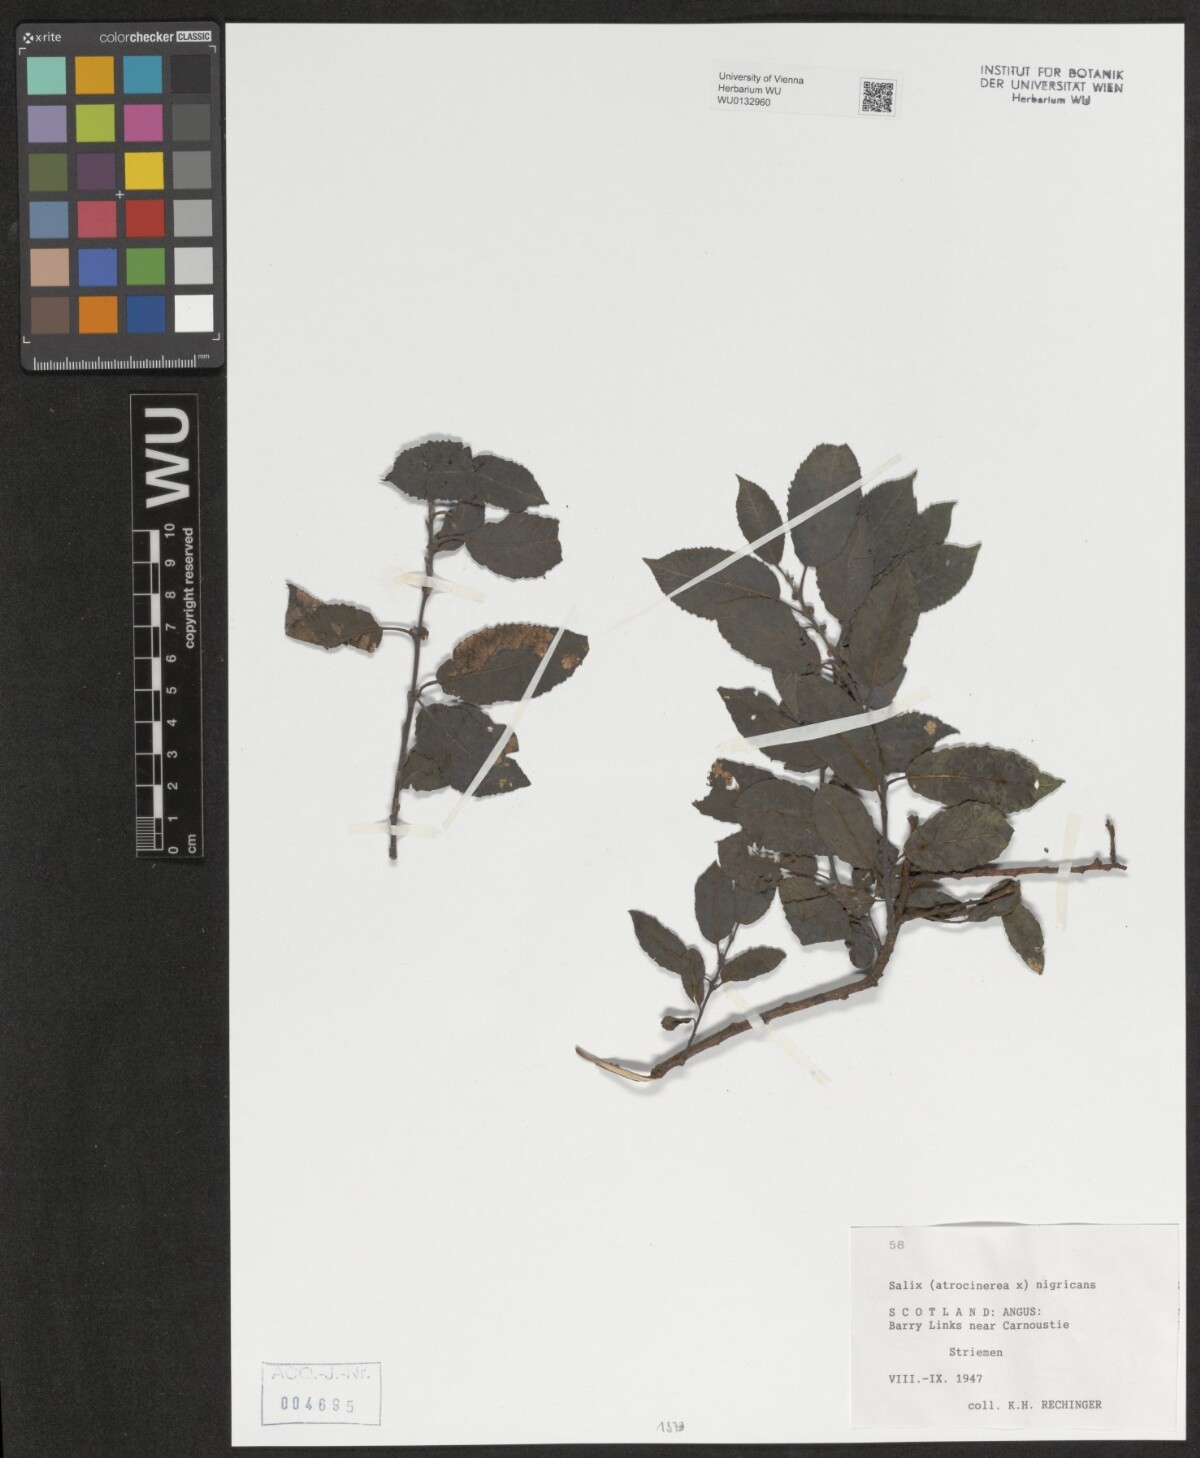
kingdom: Plantae
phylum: Tracheophyta
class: Magnoliopsida
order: Malpighiales
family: Salicaceae
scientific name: Salicaceae
